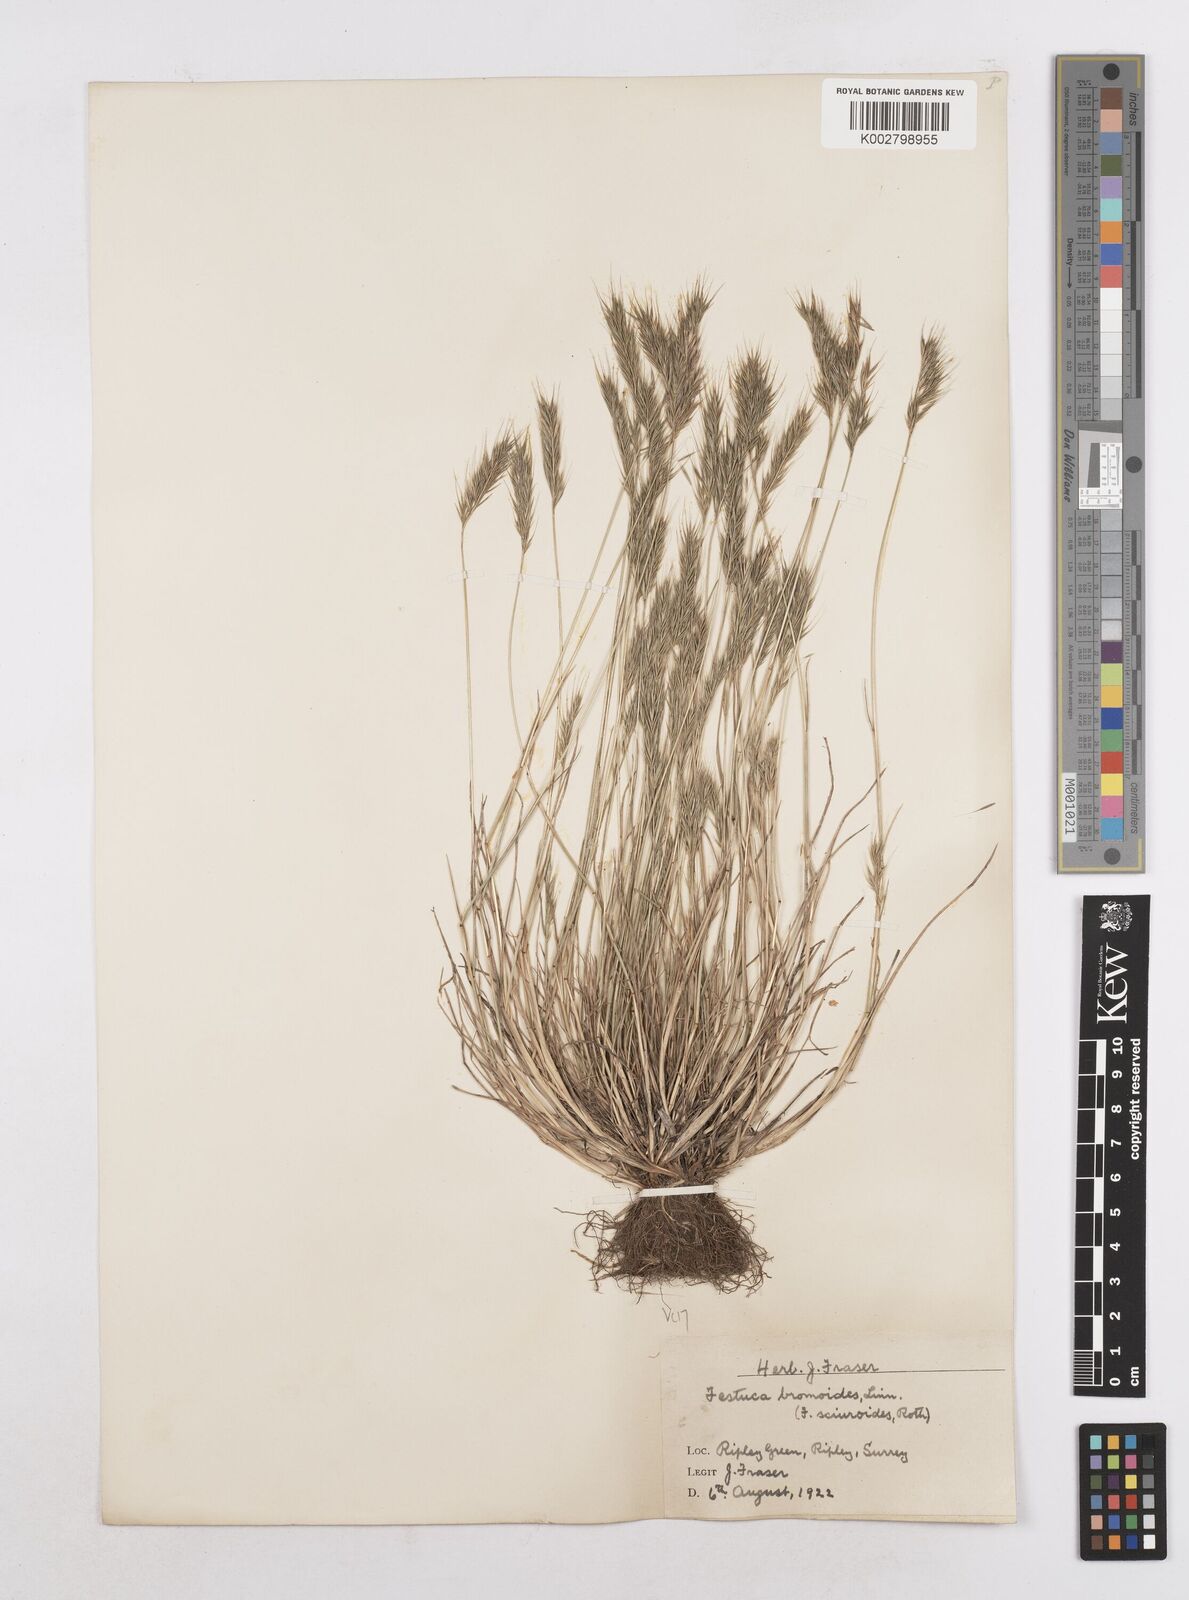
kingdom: Plantae
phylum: Tracheophyta
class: Liliopsida
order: Poales
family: Poaceae
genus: Festuca
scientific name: Festuca bromoides
